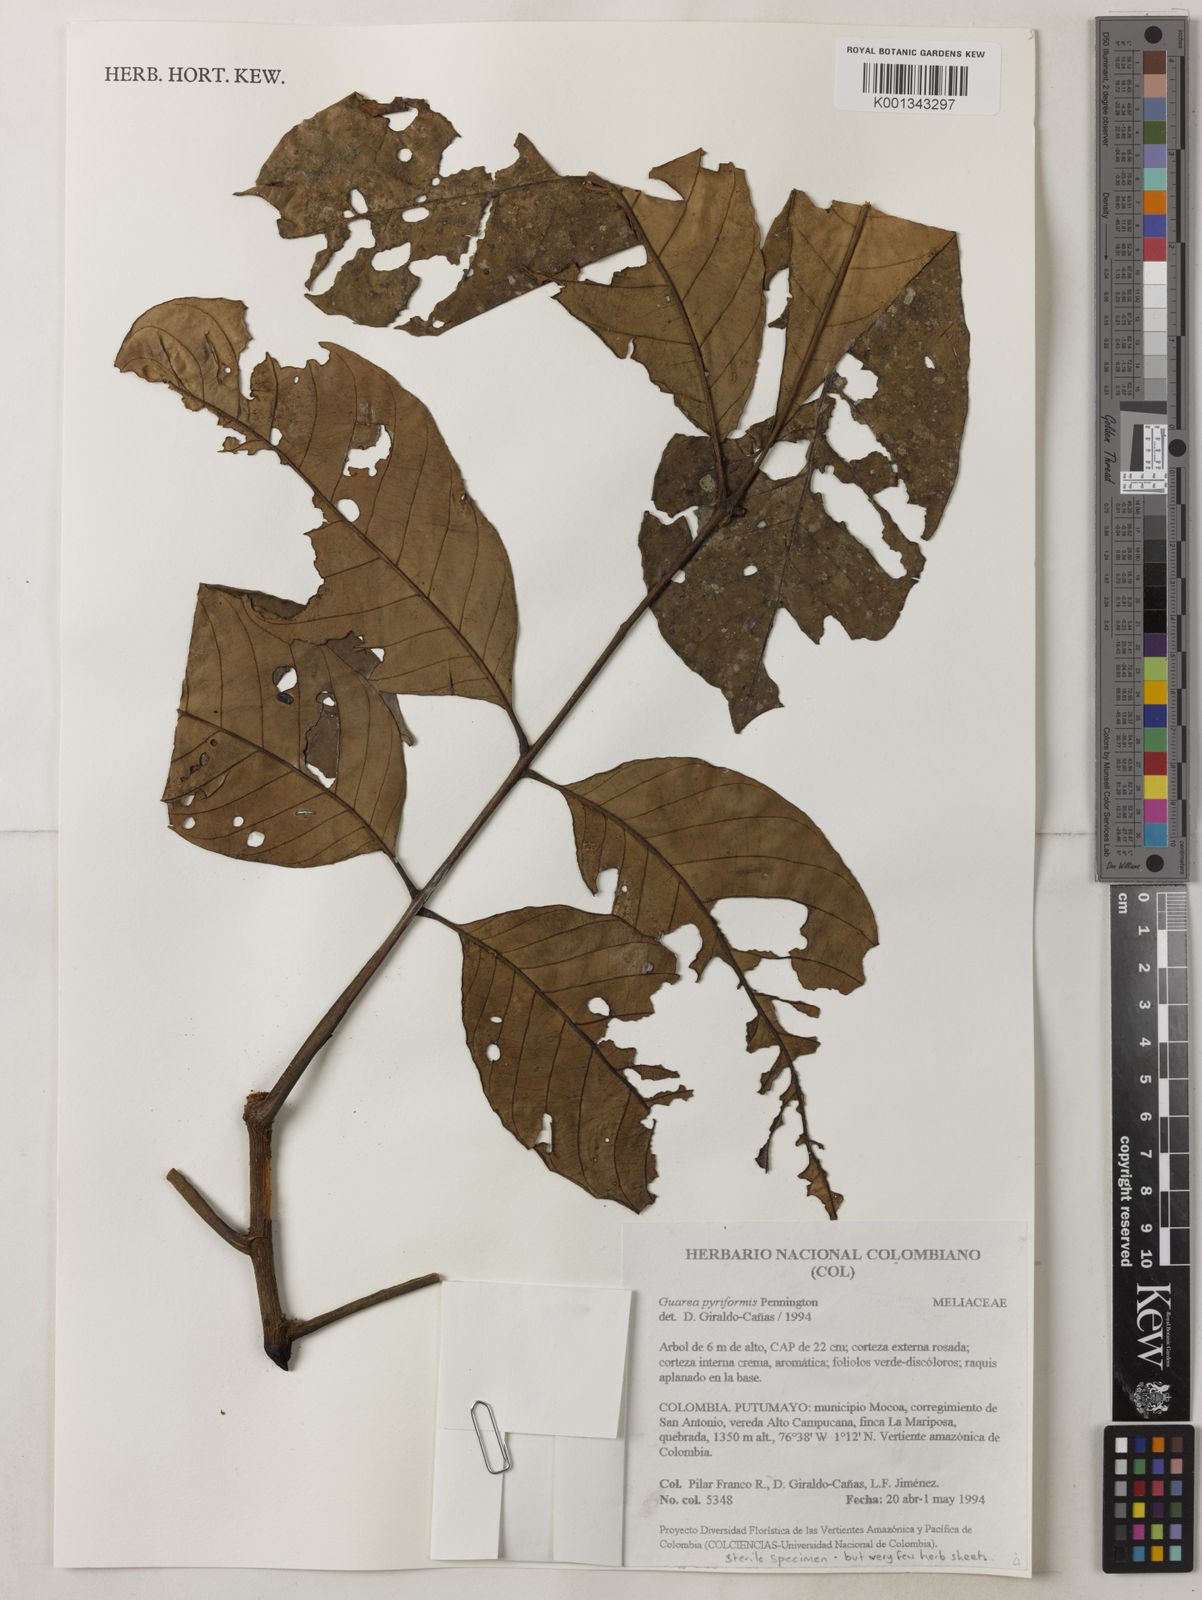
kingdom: Plantae
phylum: Tracheophyta
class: Magnoliopsida
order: Sapindales
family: Meliaceae
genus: Guarea
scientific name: Guarea pyriformis
